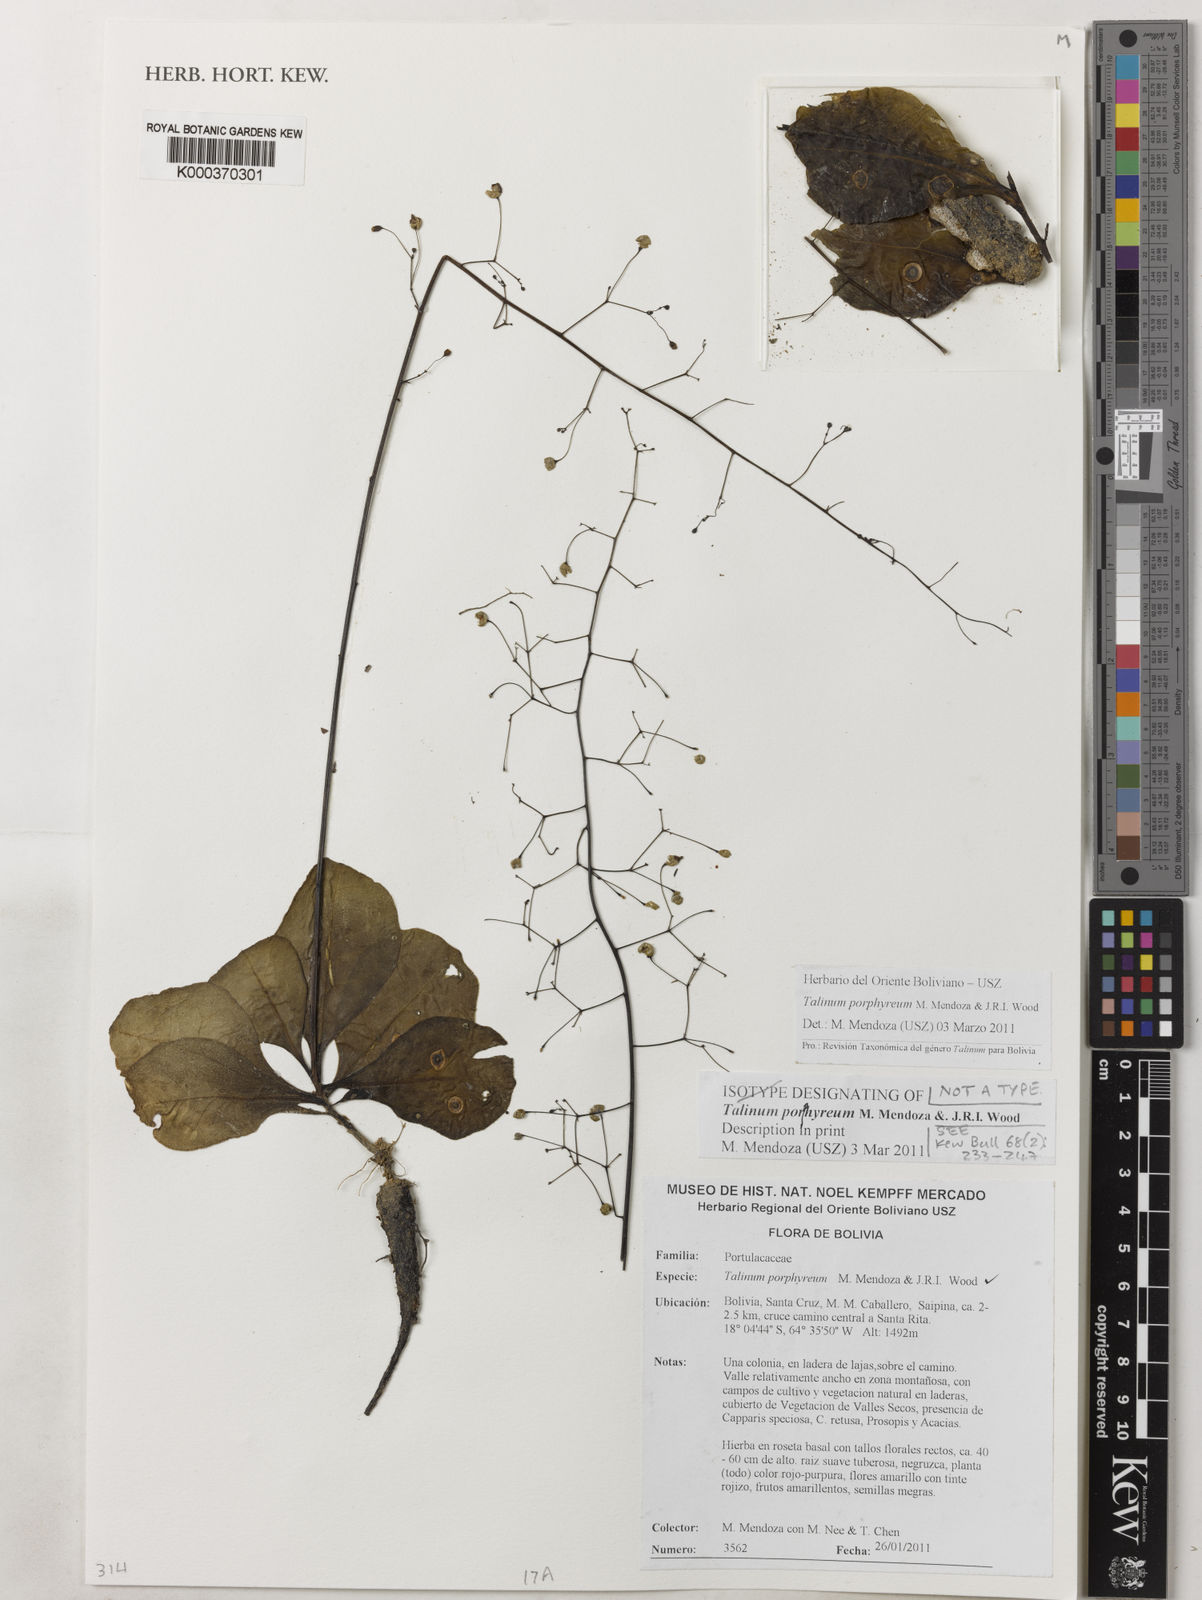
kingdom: Plantae
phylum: Tracheophyta
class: Magnoliopsida
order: Caryophyllales
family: Talinaceae
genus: Talinum
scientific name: Talinum porphyreum
